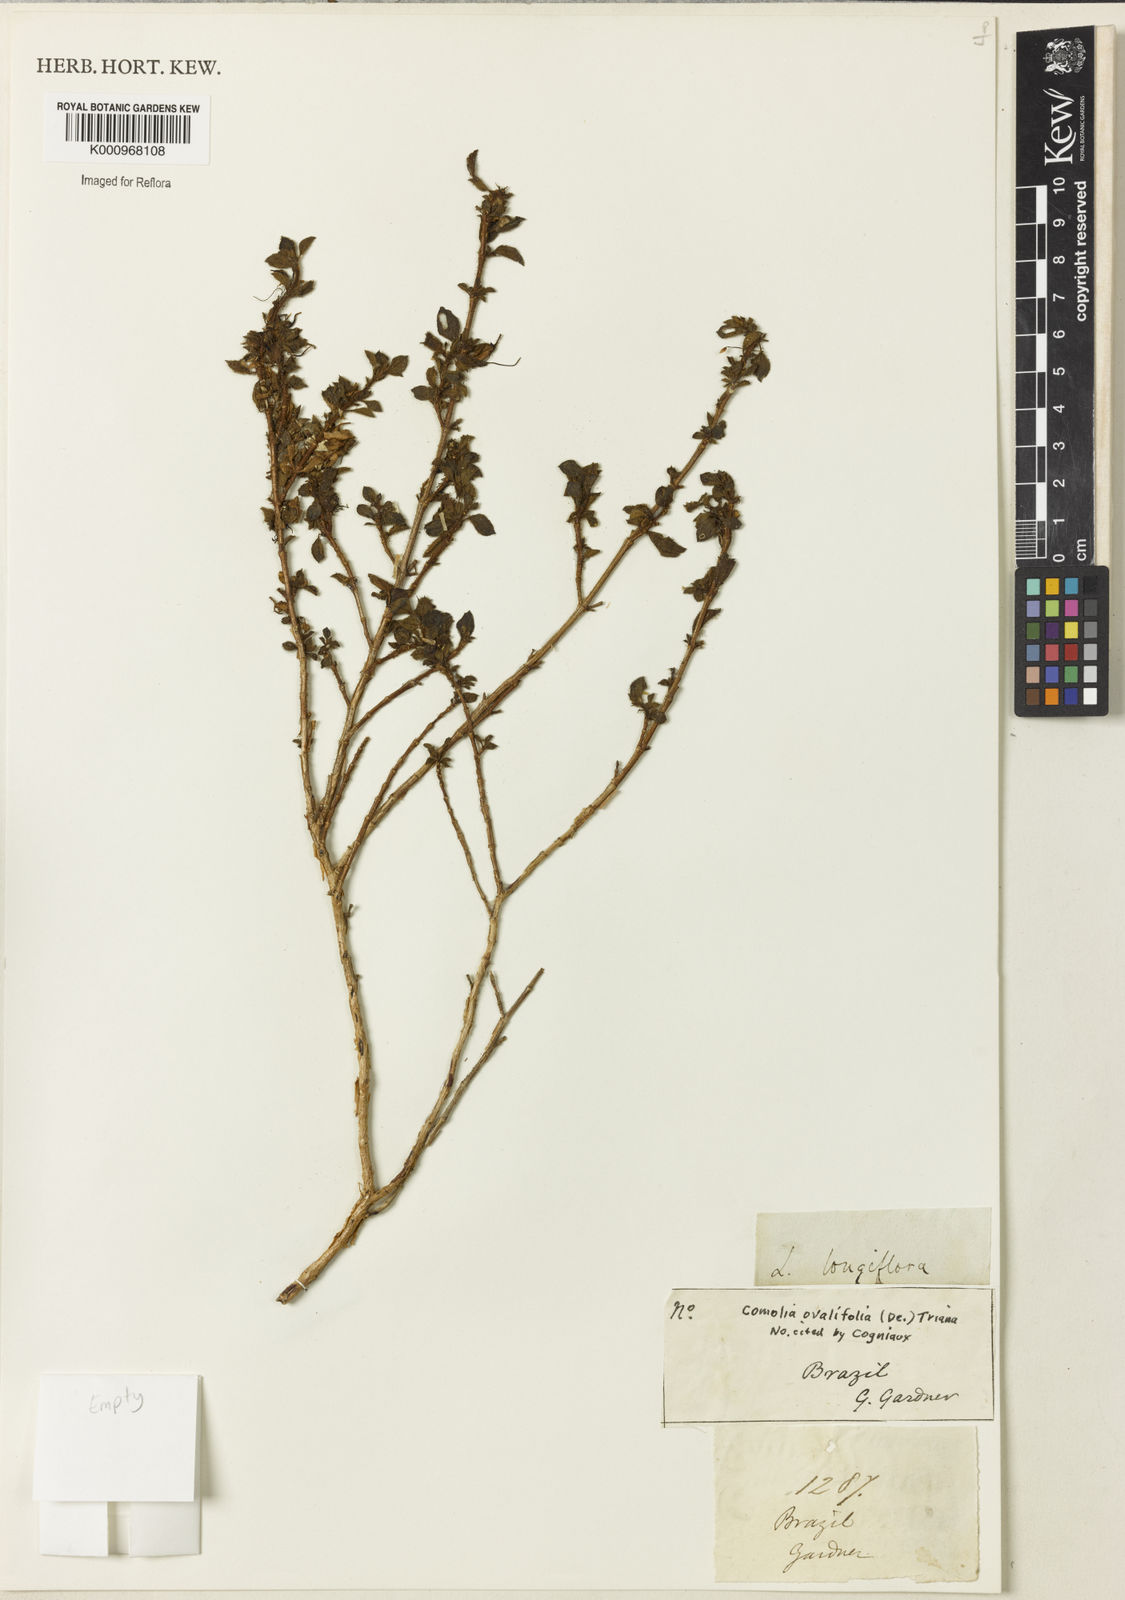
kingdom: Plantae
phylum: Tracheophyta
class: Magnoliopsida
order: Myrtales
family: Melastomataceae
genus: Comolia
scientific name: Comolia ovalifolia
